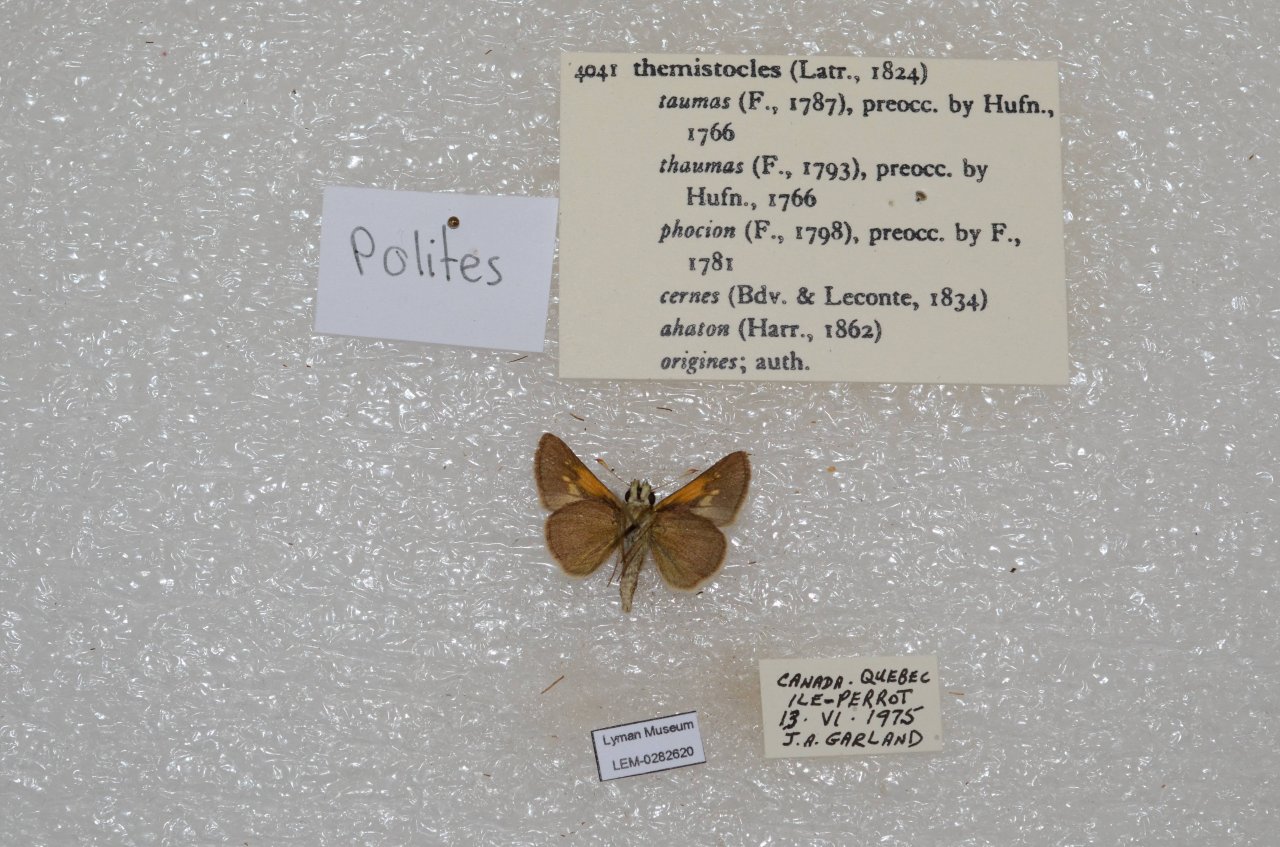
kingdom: Animalia
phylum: Arthropoda
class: Insecta
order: Lepidoptera
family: Hesperiidae
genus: Polites
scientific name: Polites themistocles
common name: Tawny-edged Skipper
